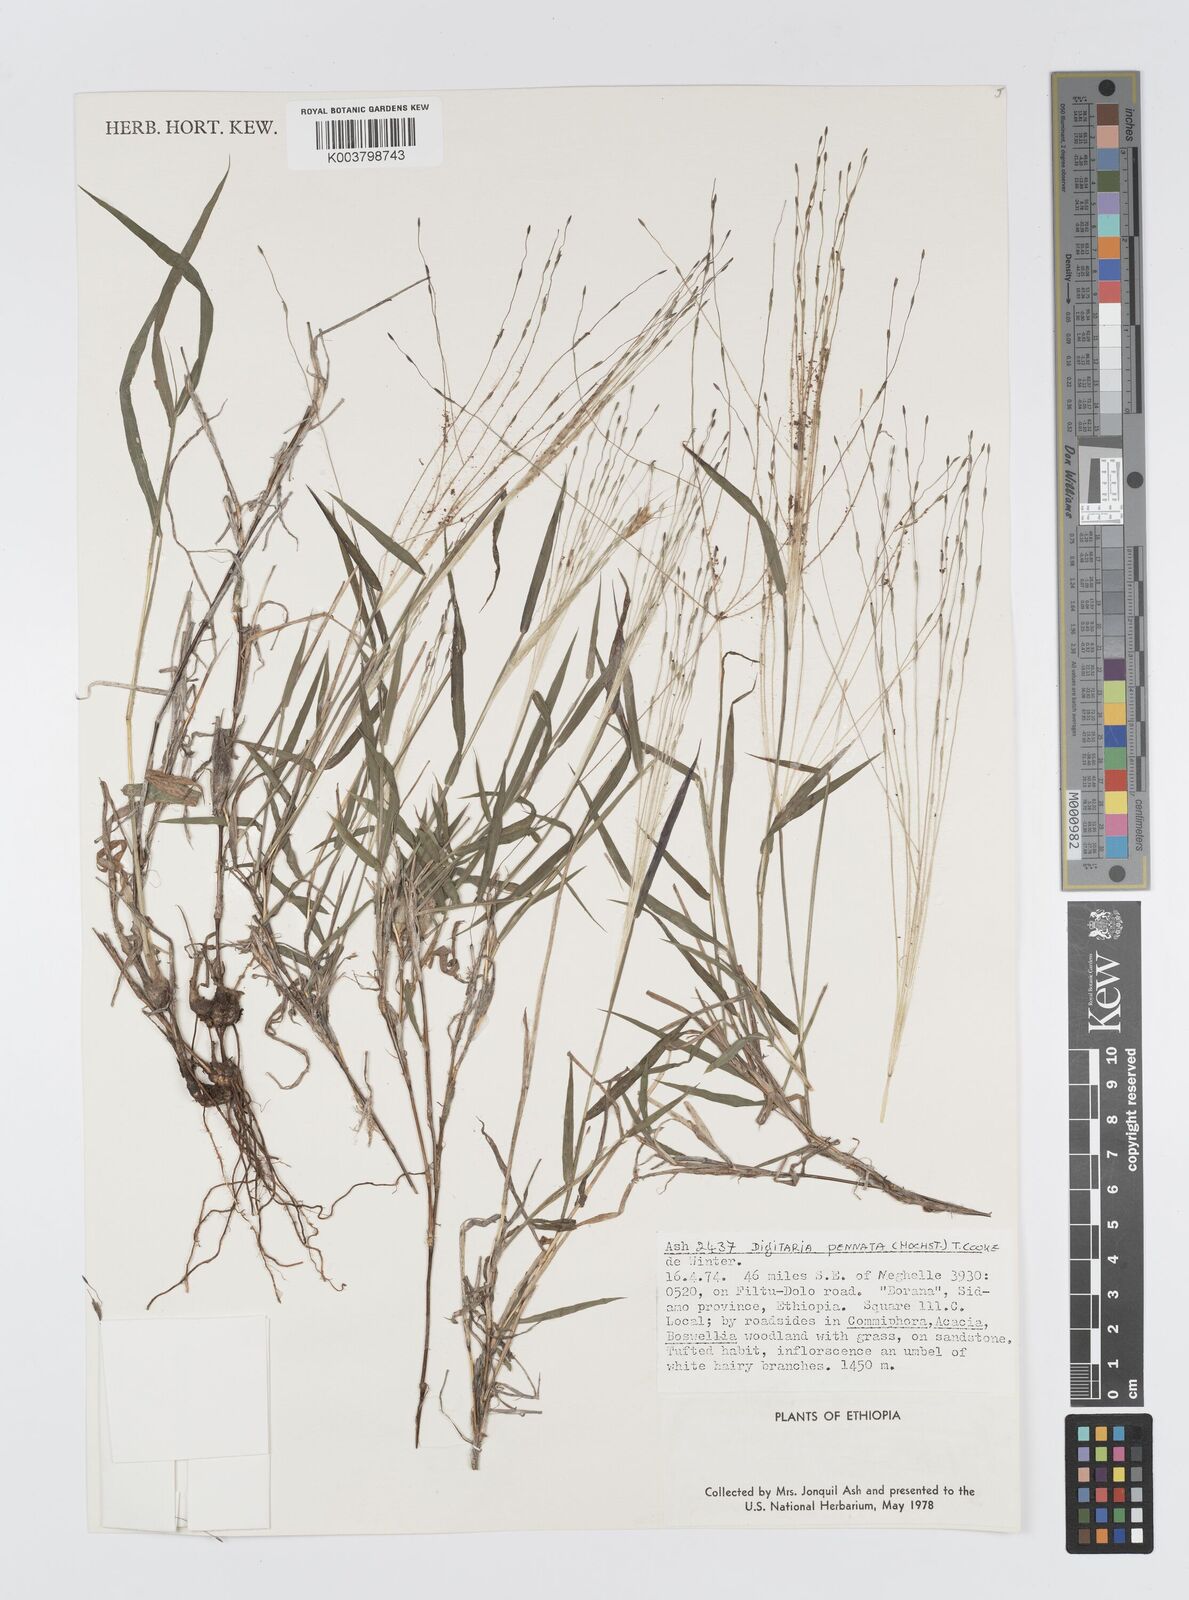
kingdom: Plantae
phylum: Tracheophyta
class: Liliopsida
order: Poales
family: Poaceae
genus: Digitaria
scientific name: Digitaria pennata
